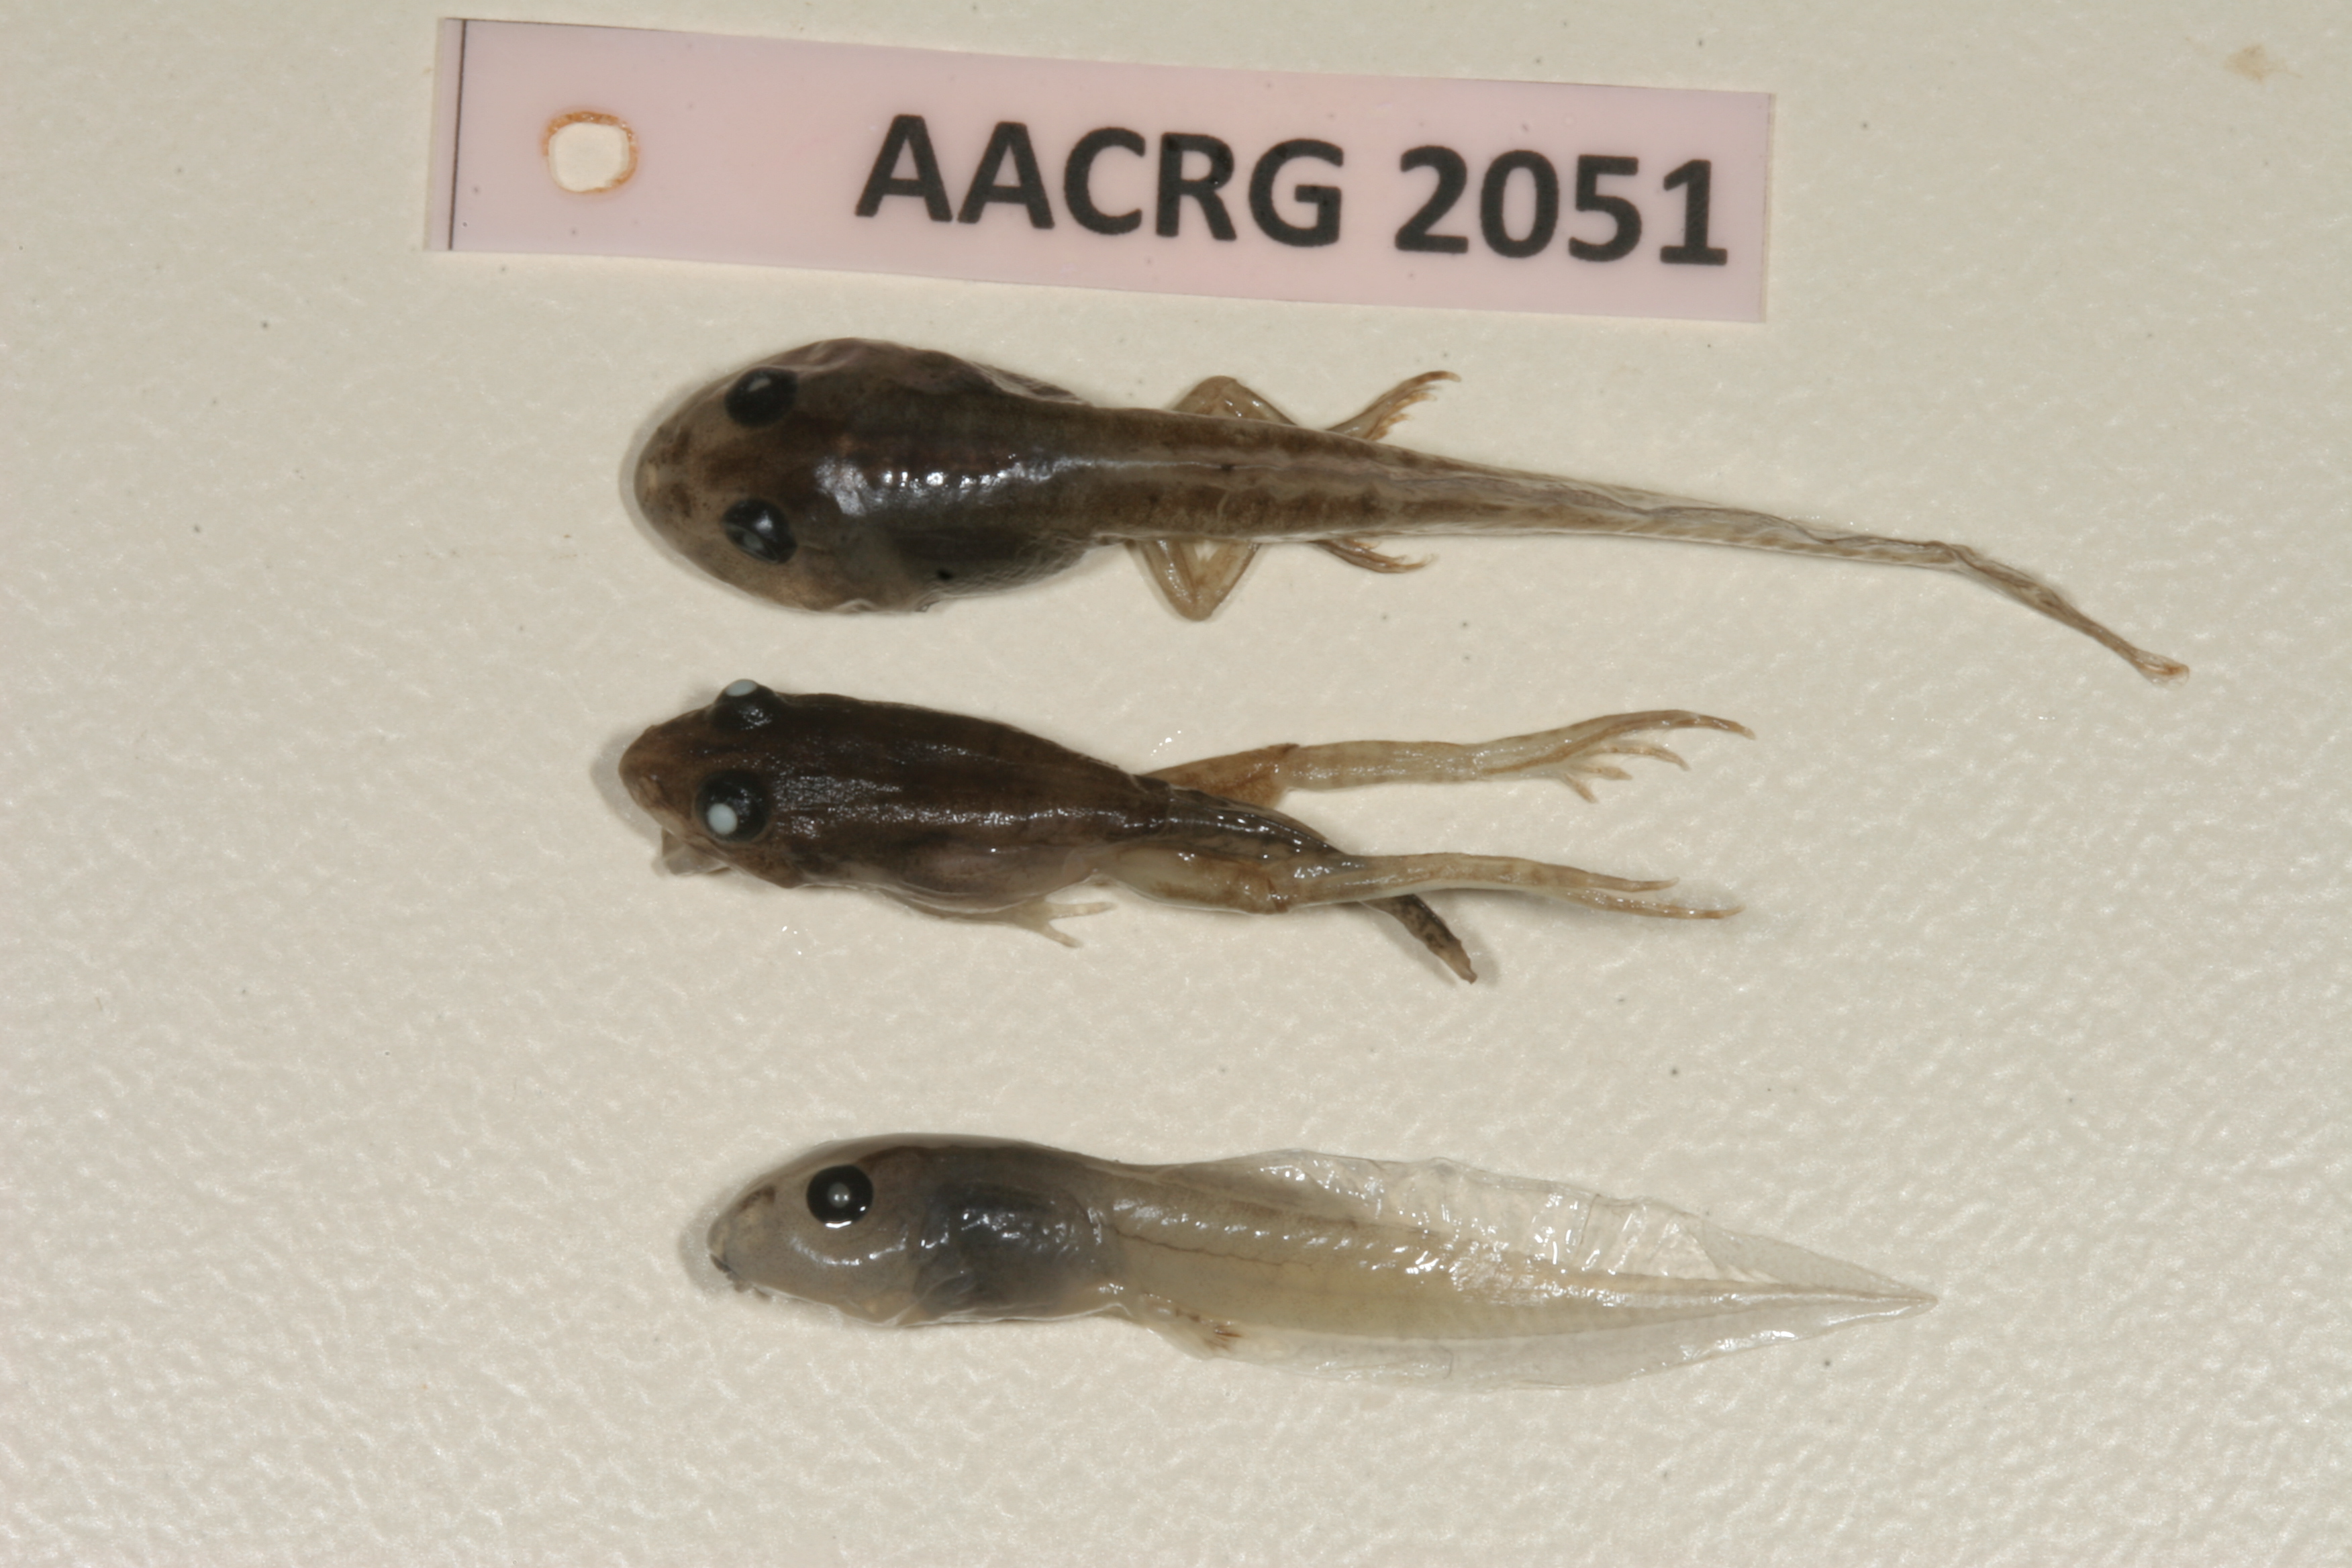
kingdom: Animalia
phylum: Chordata
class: Amphibia
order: Anura
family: Ptychadenidae
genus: Ptychadena
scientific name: Ptychadena guibei
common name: Guibe's grassland frog
